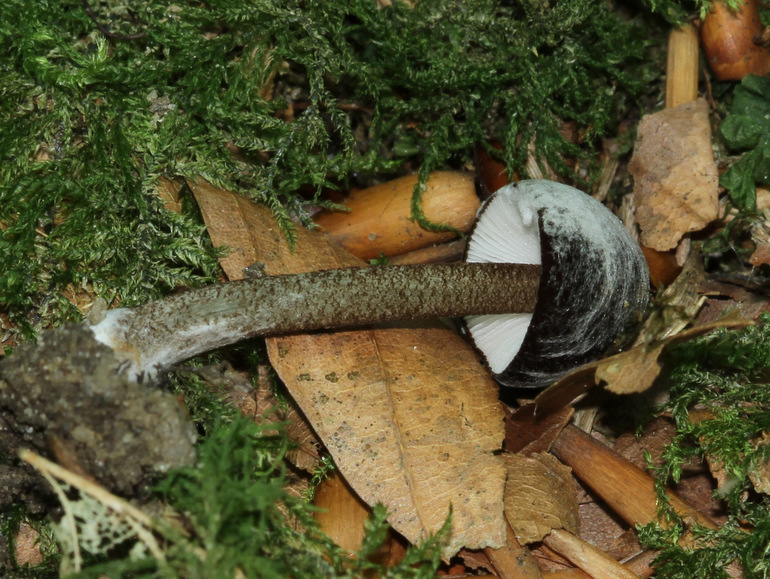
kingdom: Fungi
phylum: Basidiomycota
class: Agaricomycetes
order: Agaricales
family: Pluteaceae
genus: Pluteus
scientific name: Pluteus podospileus
